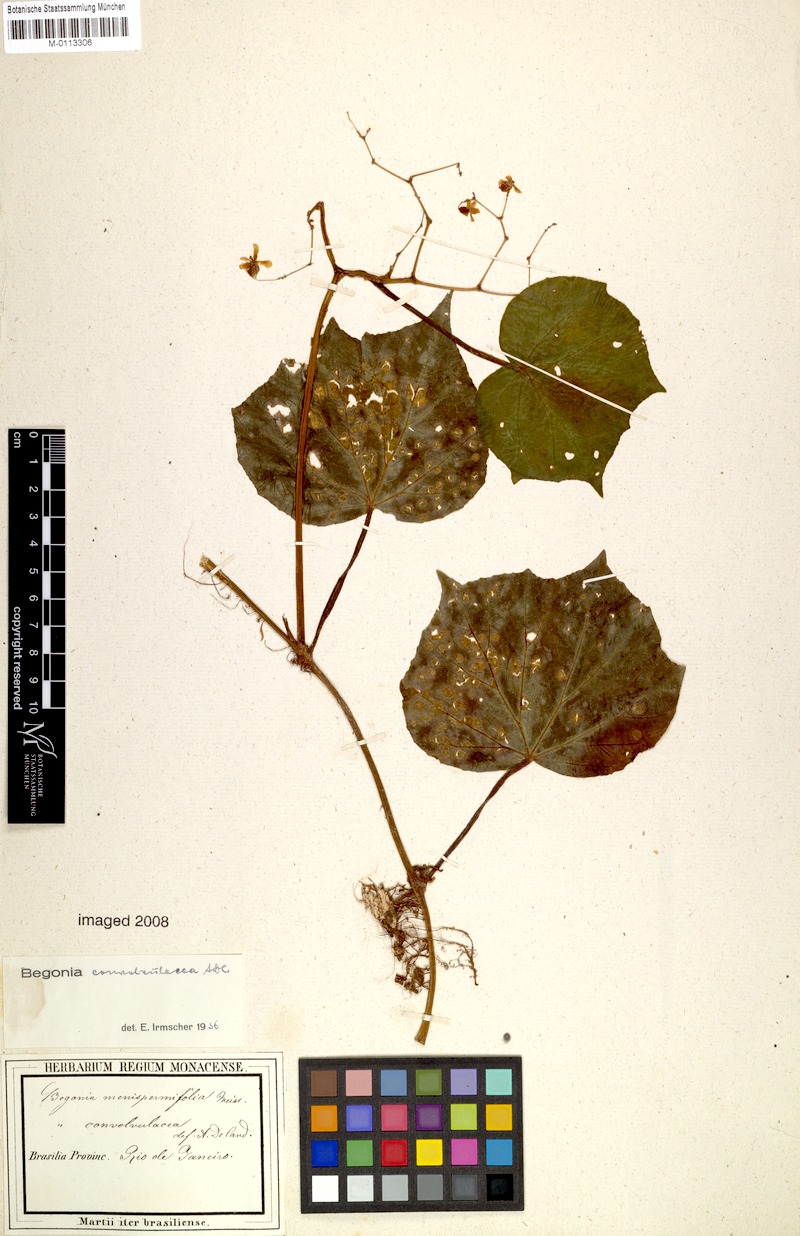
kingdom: Plantae
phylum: Tracheophyta
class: Magnoliopsida
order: Cucurbitales
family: Begoniaceae
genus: Begonia
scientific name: Begonia convolvulacea
